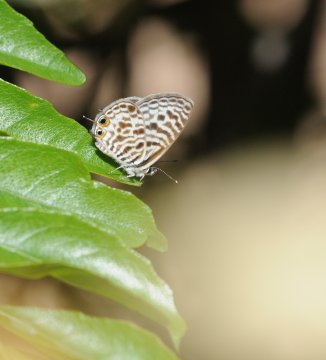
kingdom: Animalia
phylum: Arthropoda
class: Insecta
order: Lepidoptera
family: Lycaenidae
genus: Leptotes
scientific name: Leptotes pirithous
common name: Lang's Short-tailed Blue
